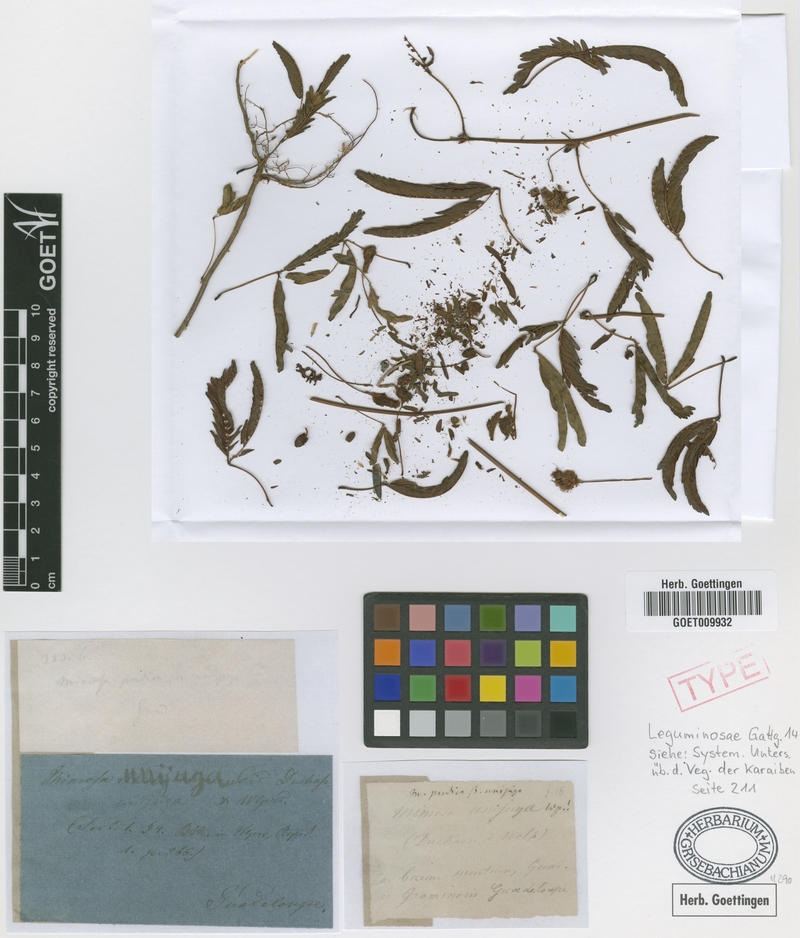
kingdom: Plantae
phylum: Tracheophyta
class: Magnoliopsida
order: Fabales
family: Fabaceae
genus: Mimosa
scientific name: Mimosa pudica
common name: Sensitive plant
